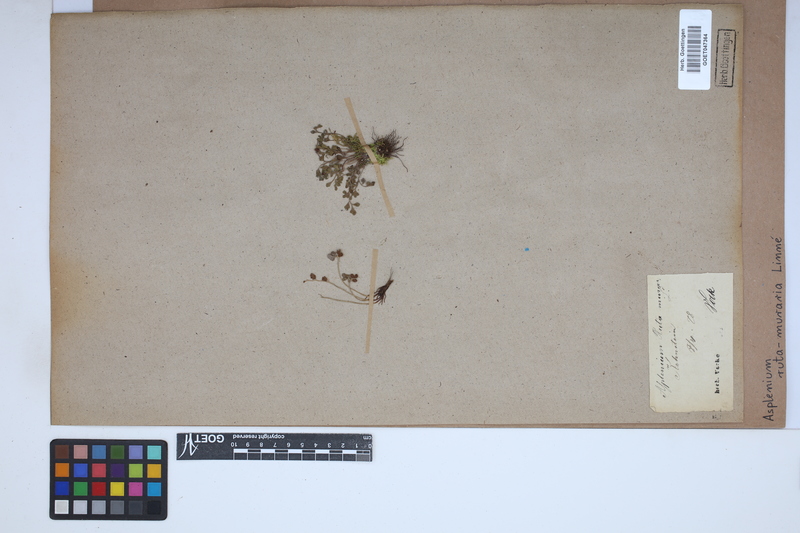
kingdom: Plantae
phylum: Tracheophyta
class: Polypodiopsida
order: Polypodiales
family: Aspleniaceae
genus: Asplenium
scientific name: Asplenium ruta-muraria
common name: Wall-rue
